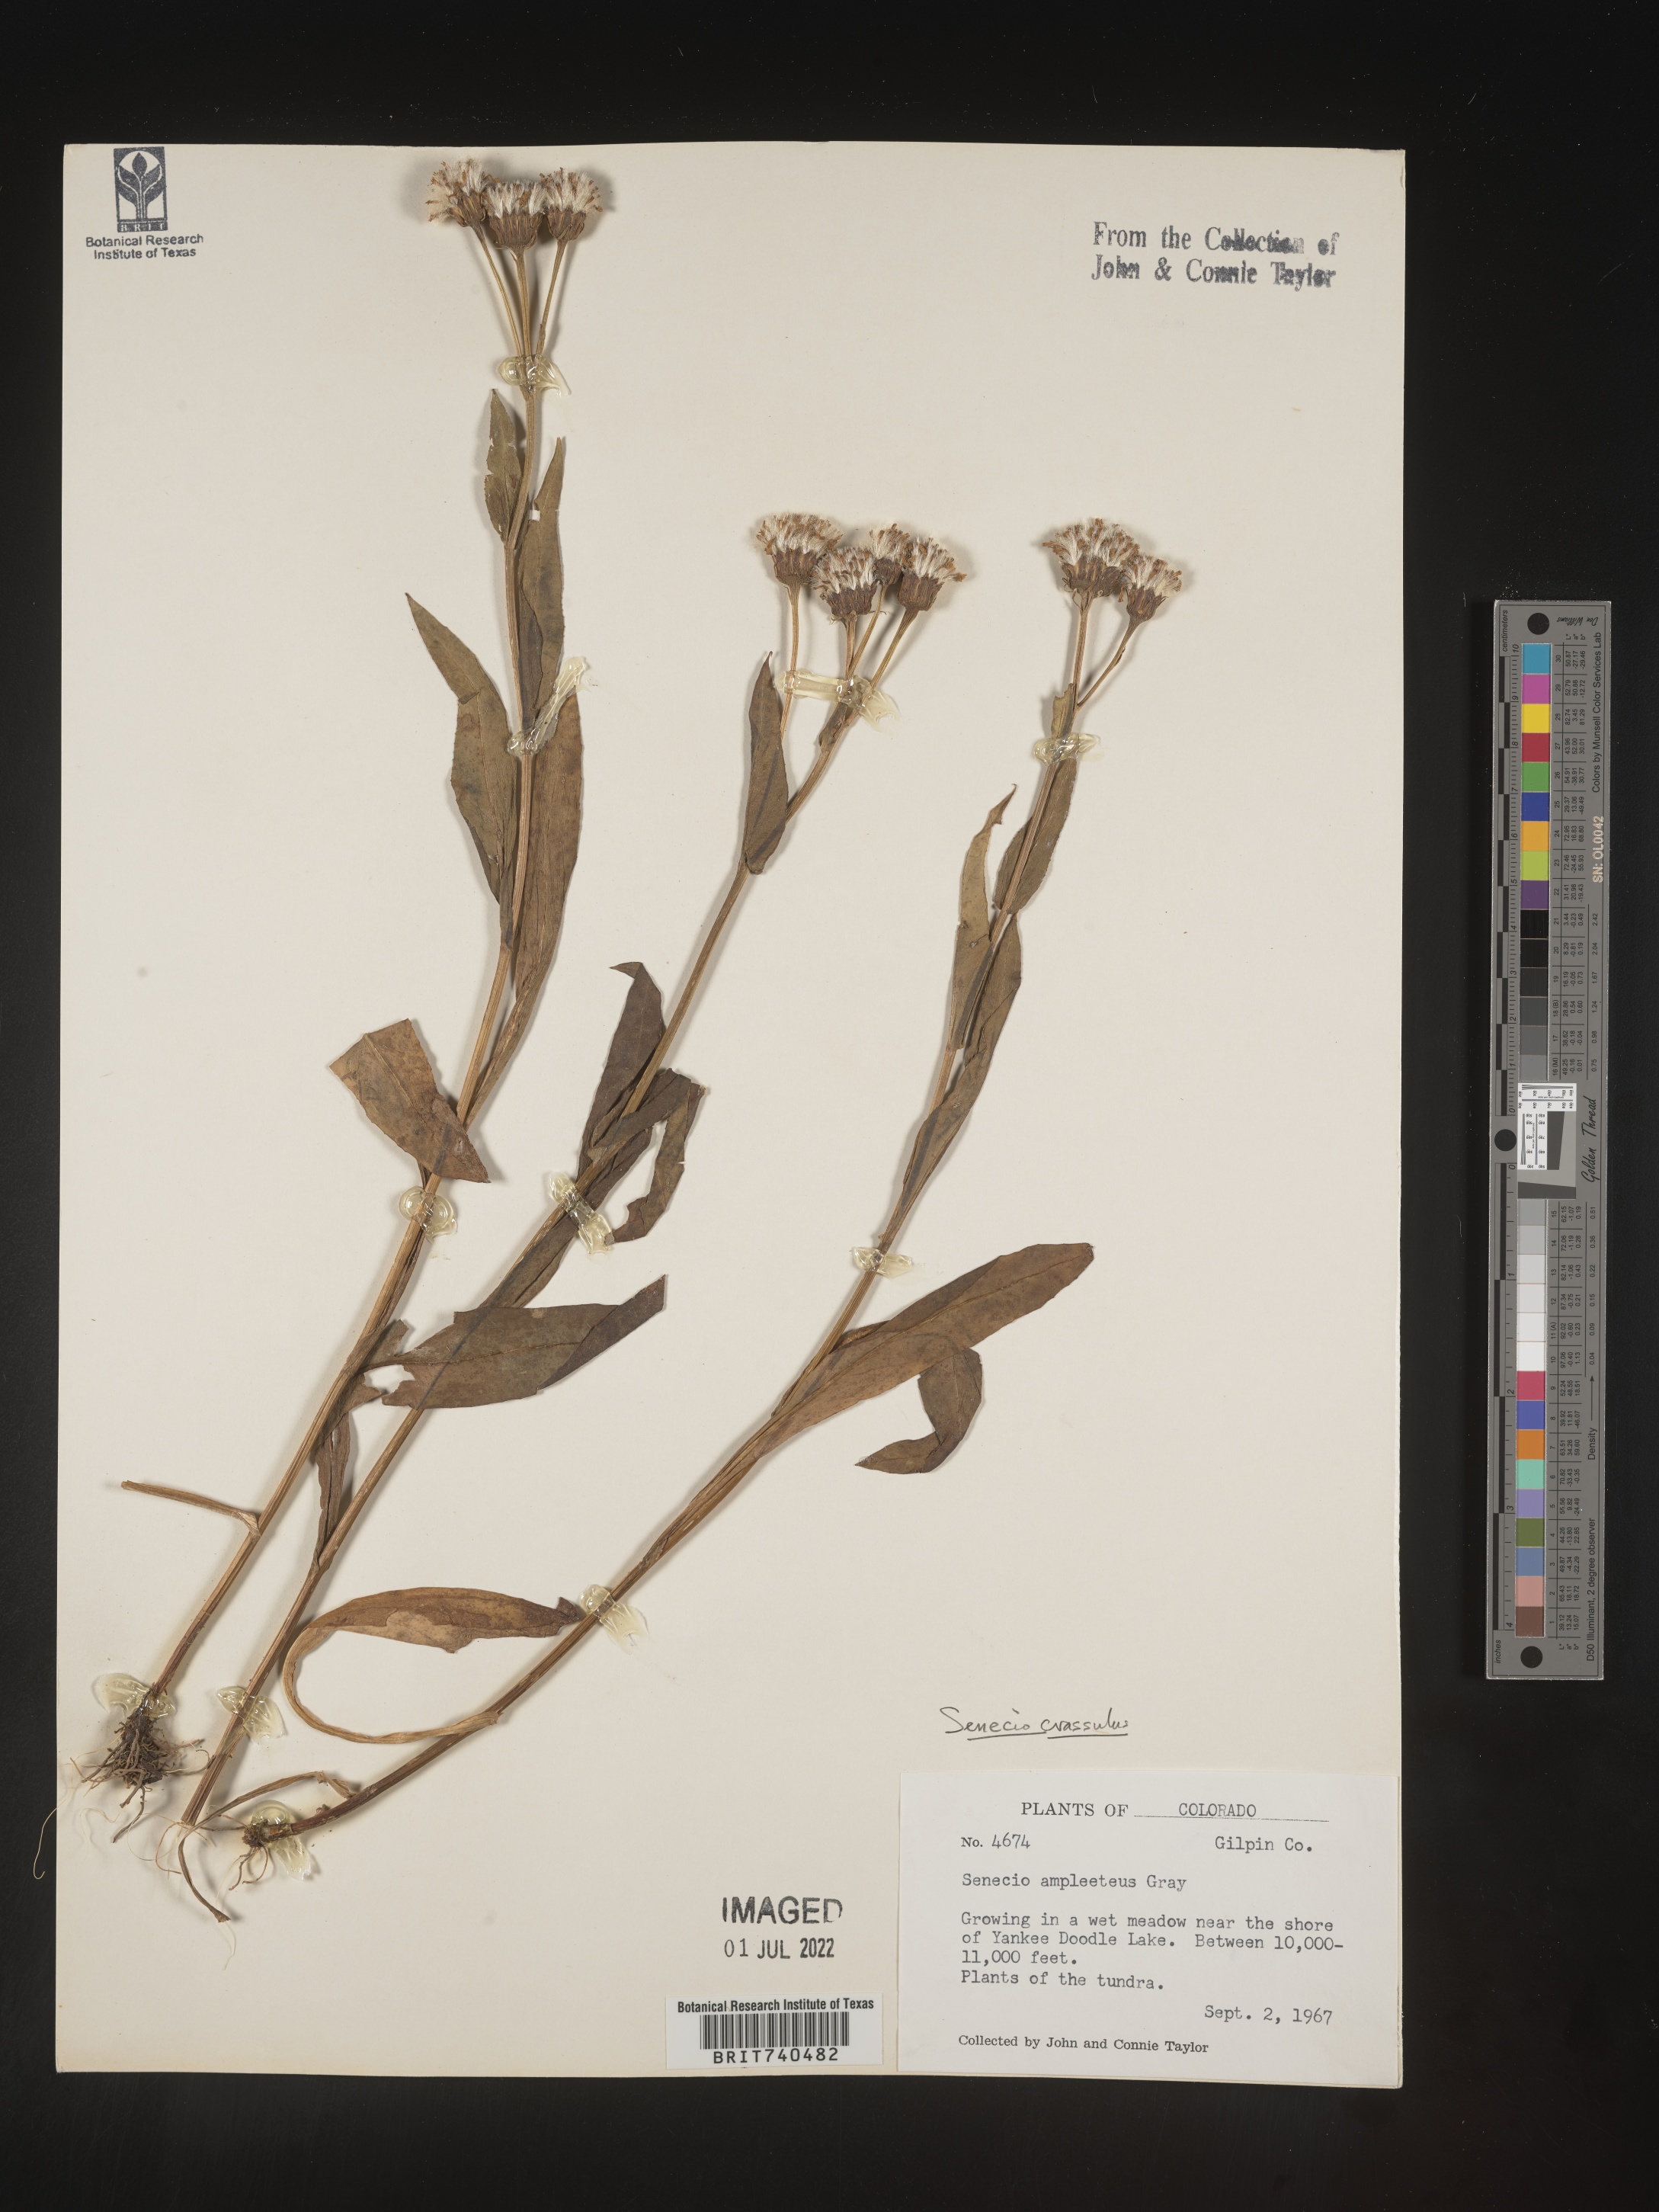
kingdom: Plantae
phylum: Tracheophyta
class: Magnoliopsida
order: Asterales
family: Asteraceae
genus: Senecio
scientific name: Senecio crassulus
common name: Mountain-meadow butterweed
